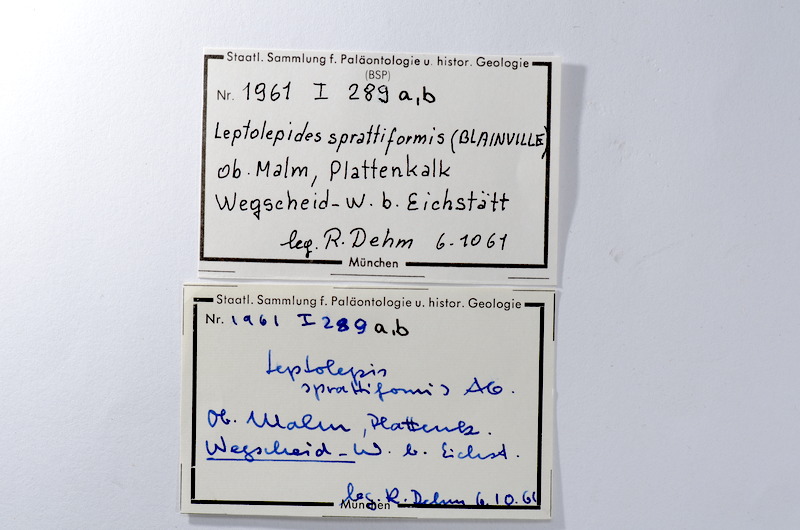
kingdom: Animalia
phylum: Chordata
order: Salmoniformes
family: Orthogonikleithridae
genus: Leptolepides
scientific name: Leptolepides sprattiformis
